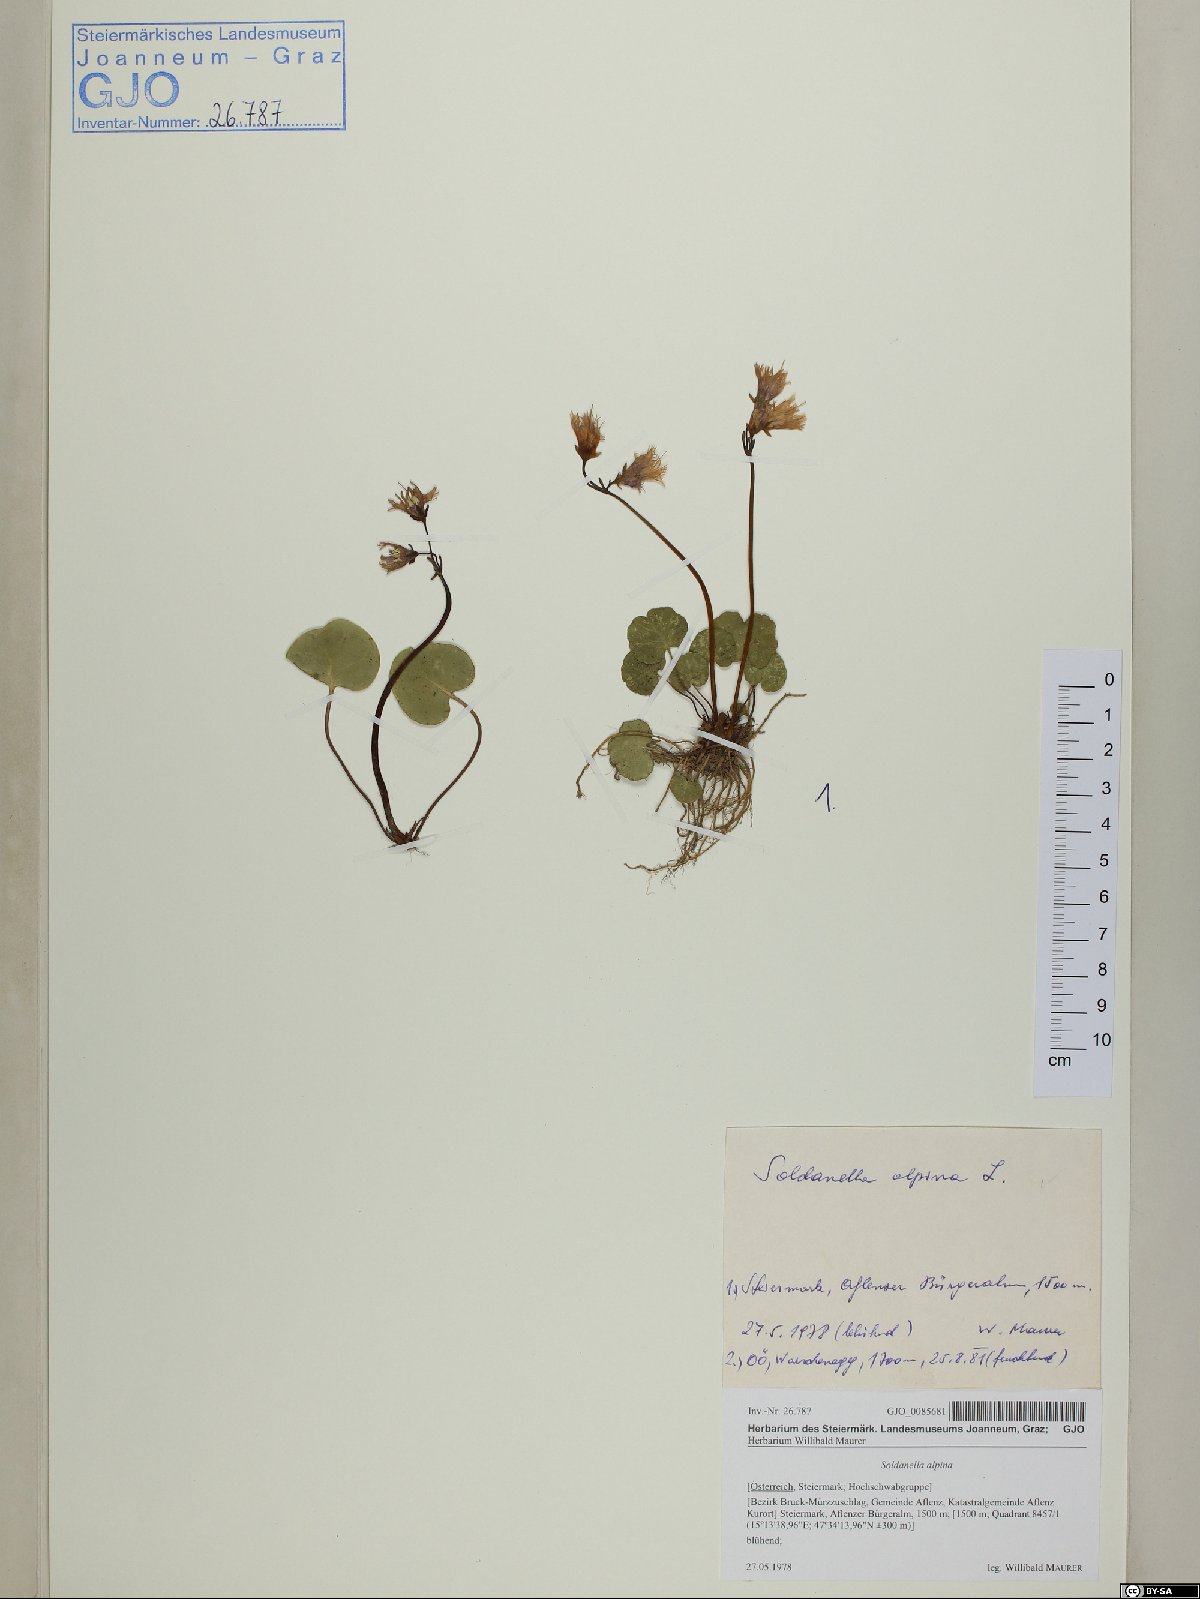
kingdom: Plantae
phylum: Tracheophyta
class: Magnoliopsida
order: Ericales
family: Primulaceae
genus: Soldanella
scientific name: Soldanella alpina
